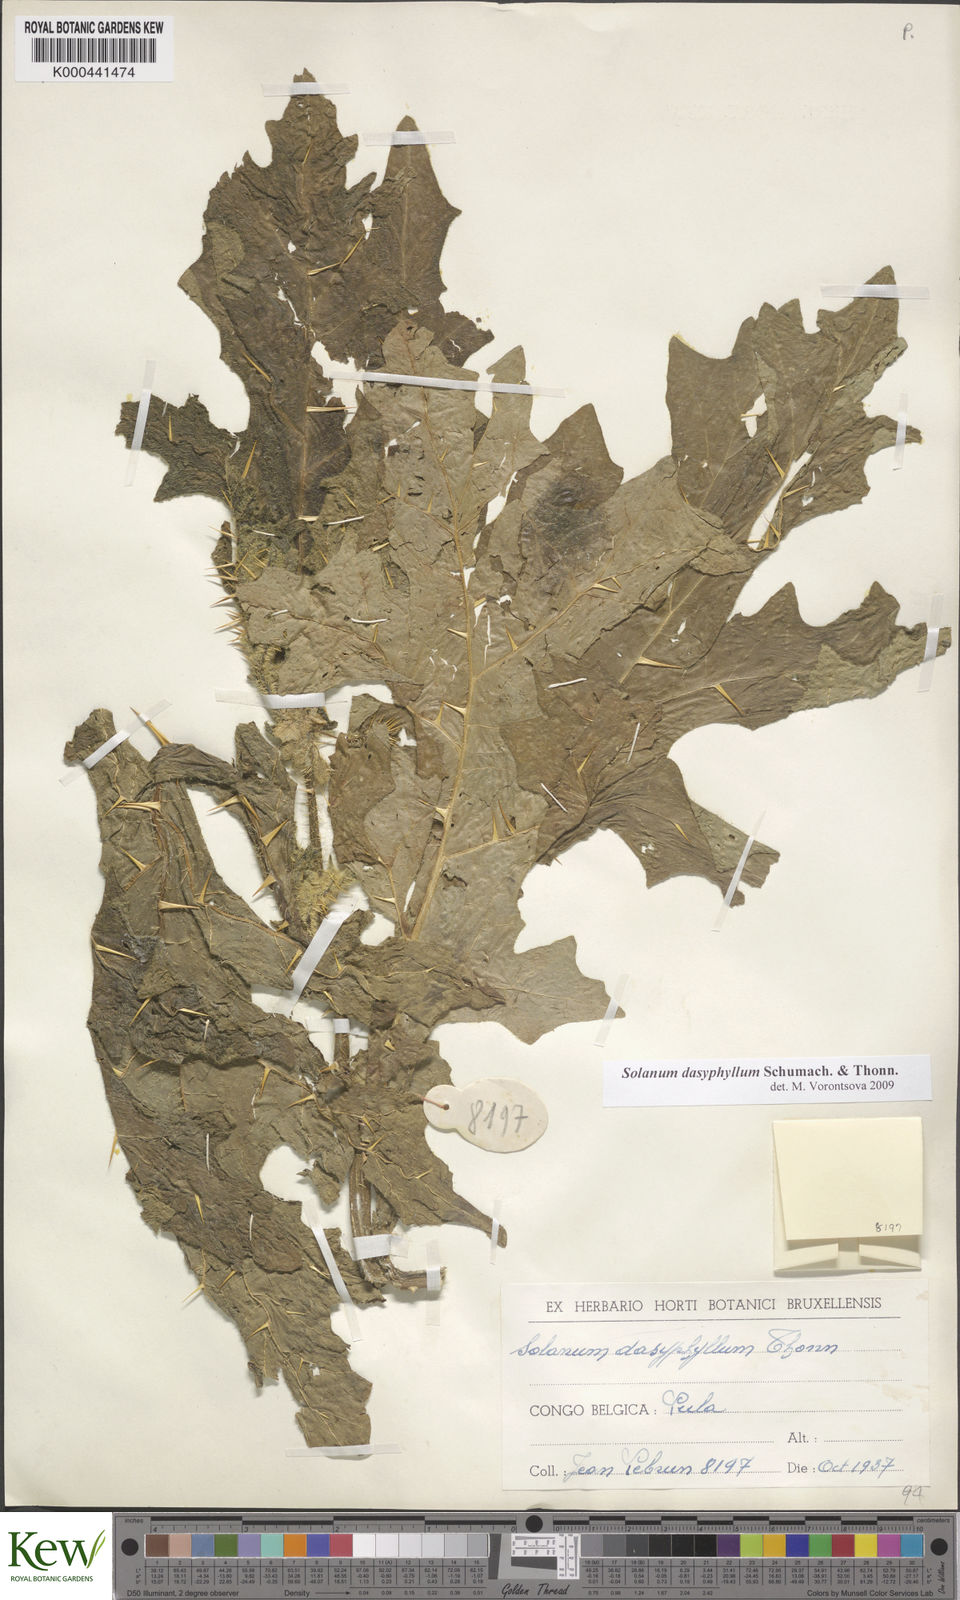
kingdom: Plantae
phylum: Tracheophyta
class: Magnoliopsida
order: Solanales
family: Solanaceae
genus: Solanum
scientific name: Solanum dasyphyllum
